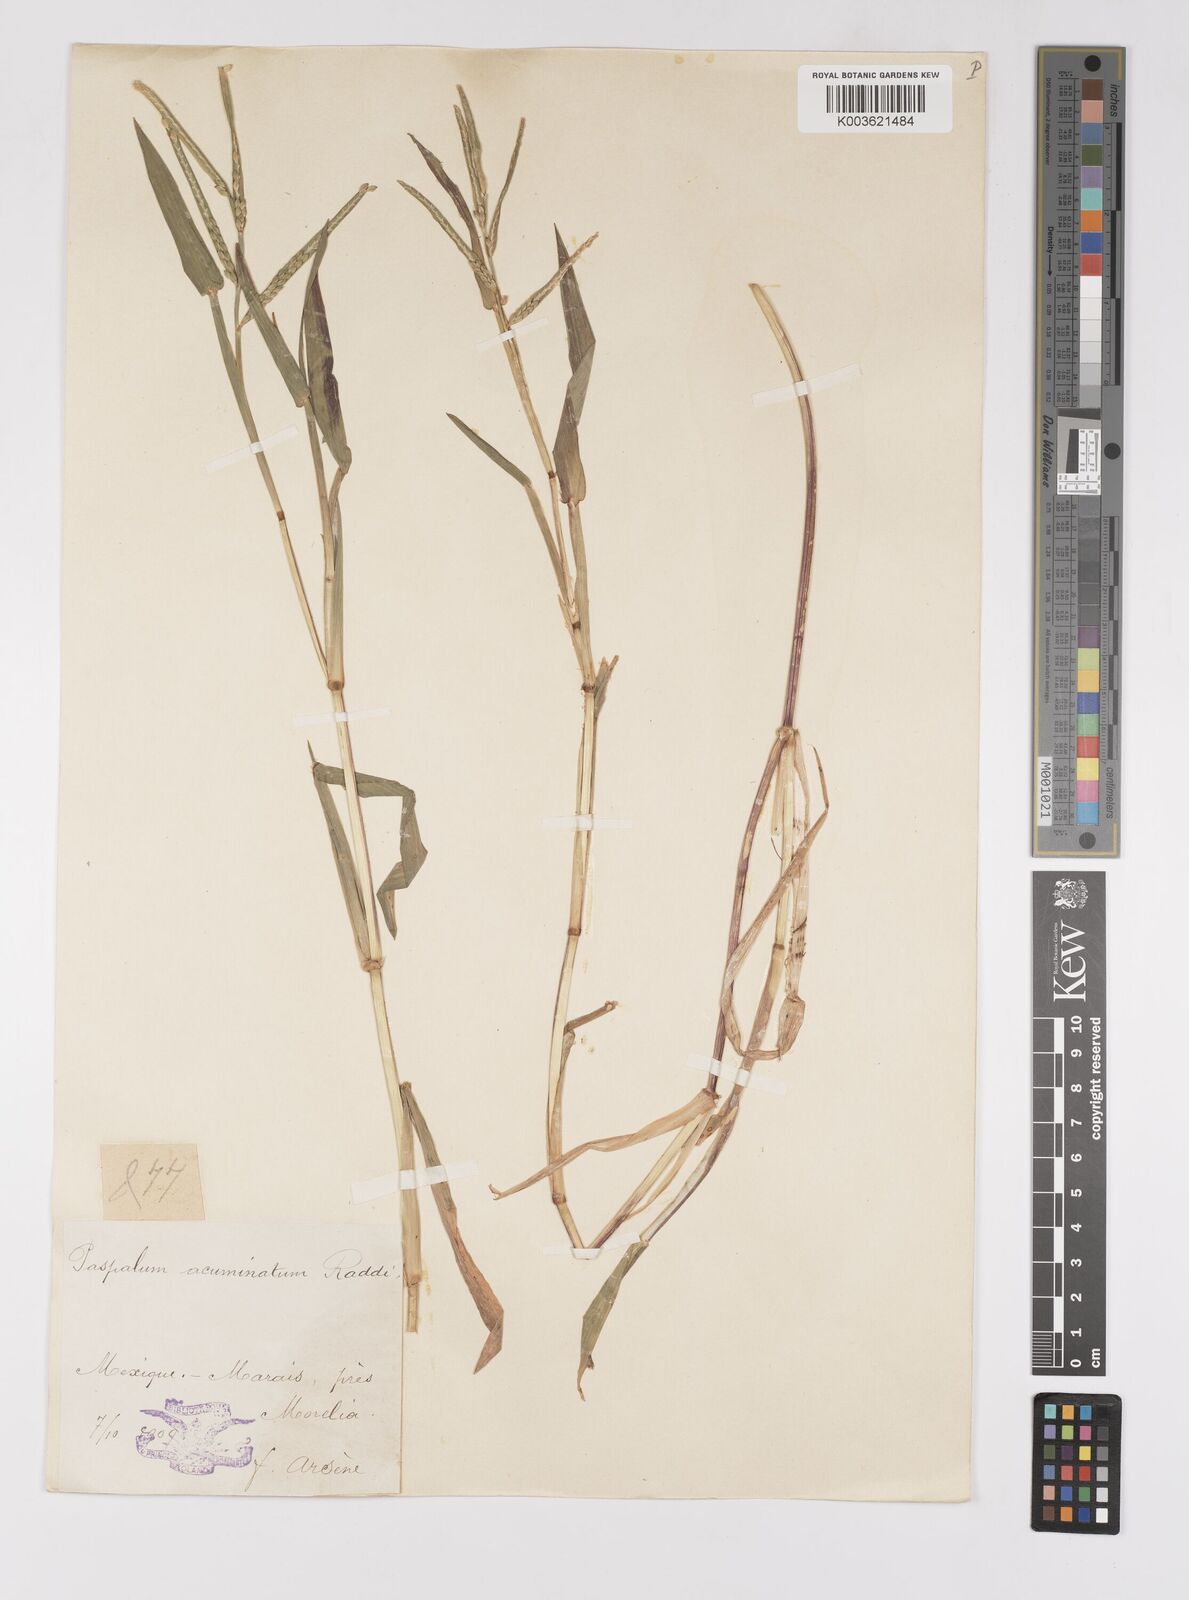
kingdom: Plantae
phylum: Tracheophyta
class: Liliopsida
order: Poales
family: Poaceae
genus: Paspalum
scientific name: Paspalum acuminatum
